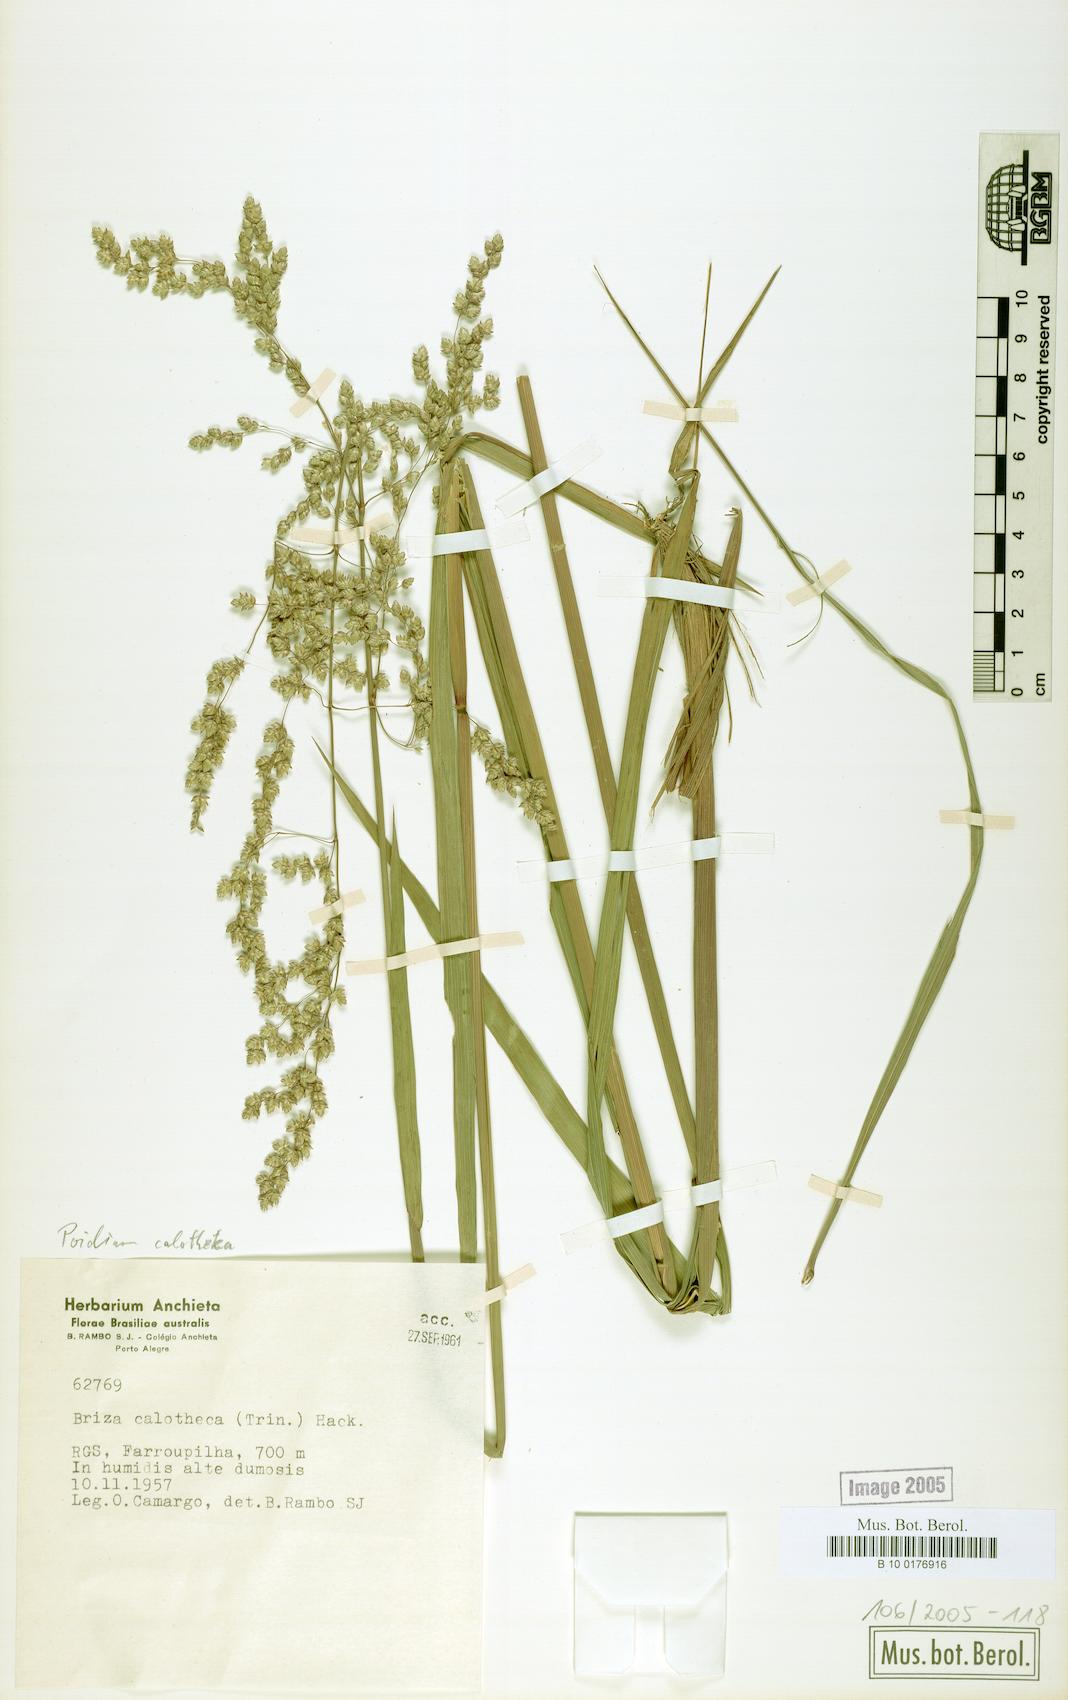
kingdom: Plantae
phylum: Tracheophyta
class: Liliopsida
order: Poales
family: Poaceae
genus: Poidium
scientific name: Poidium calotheca
